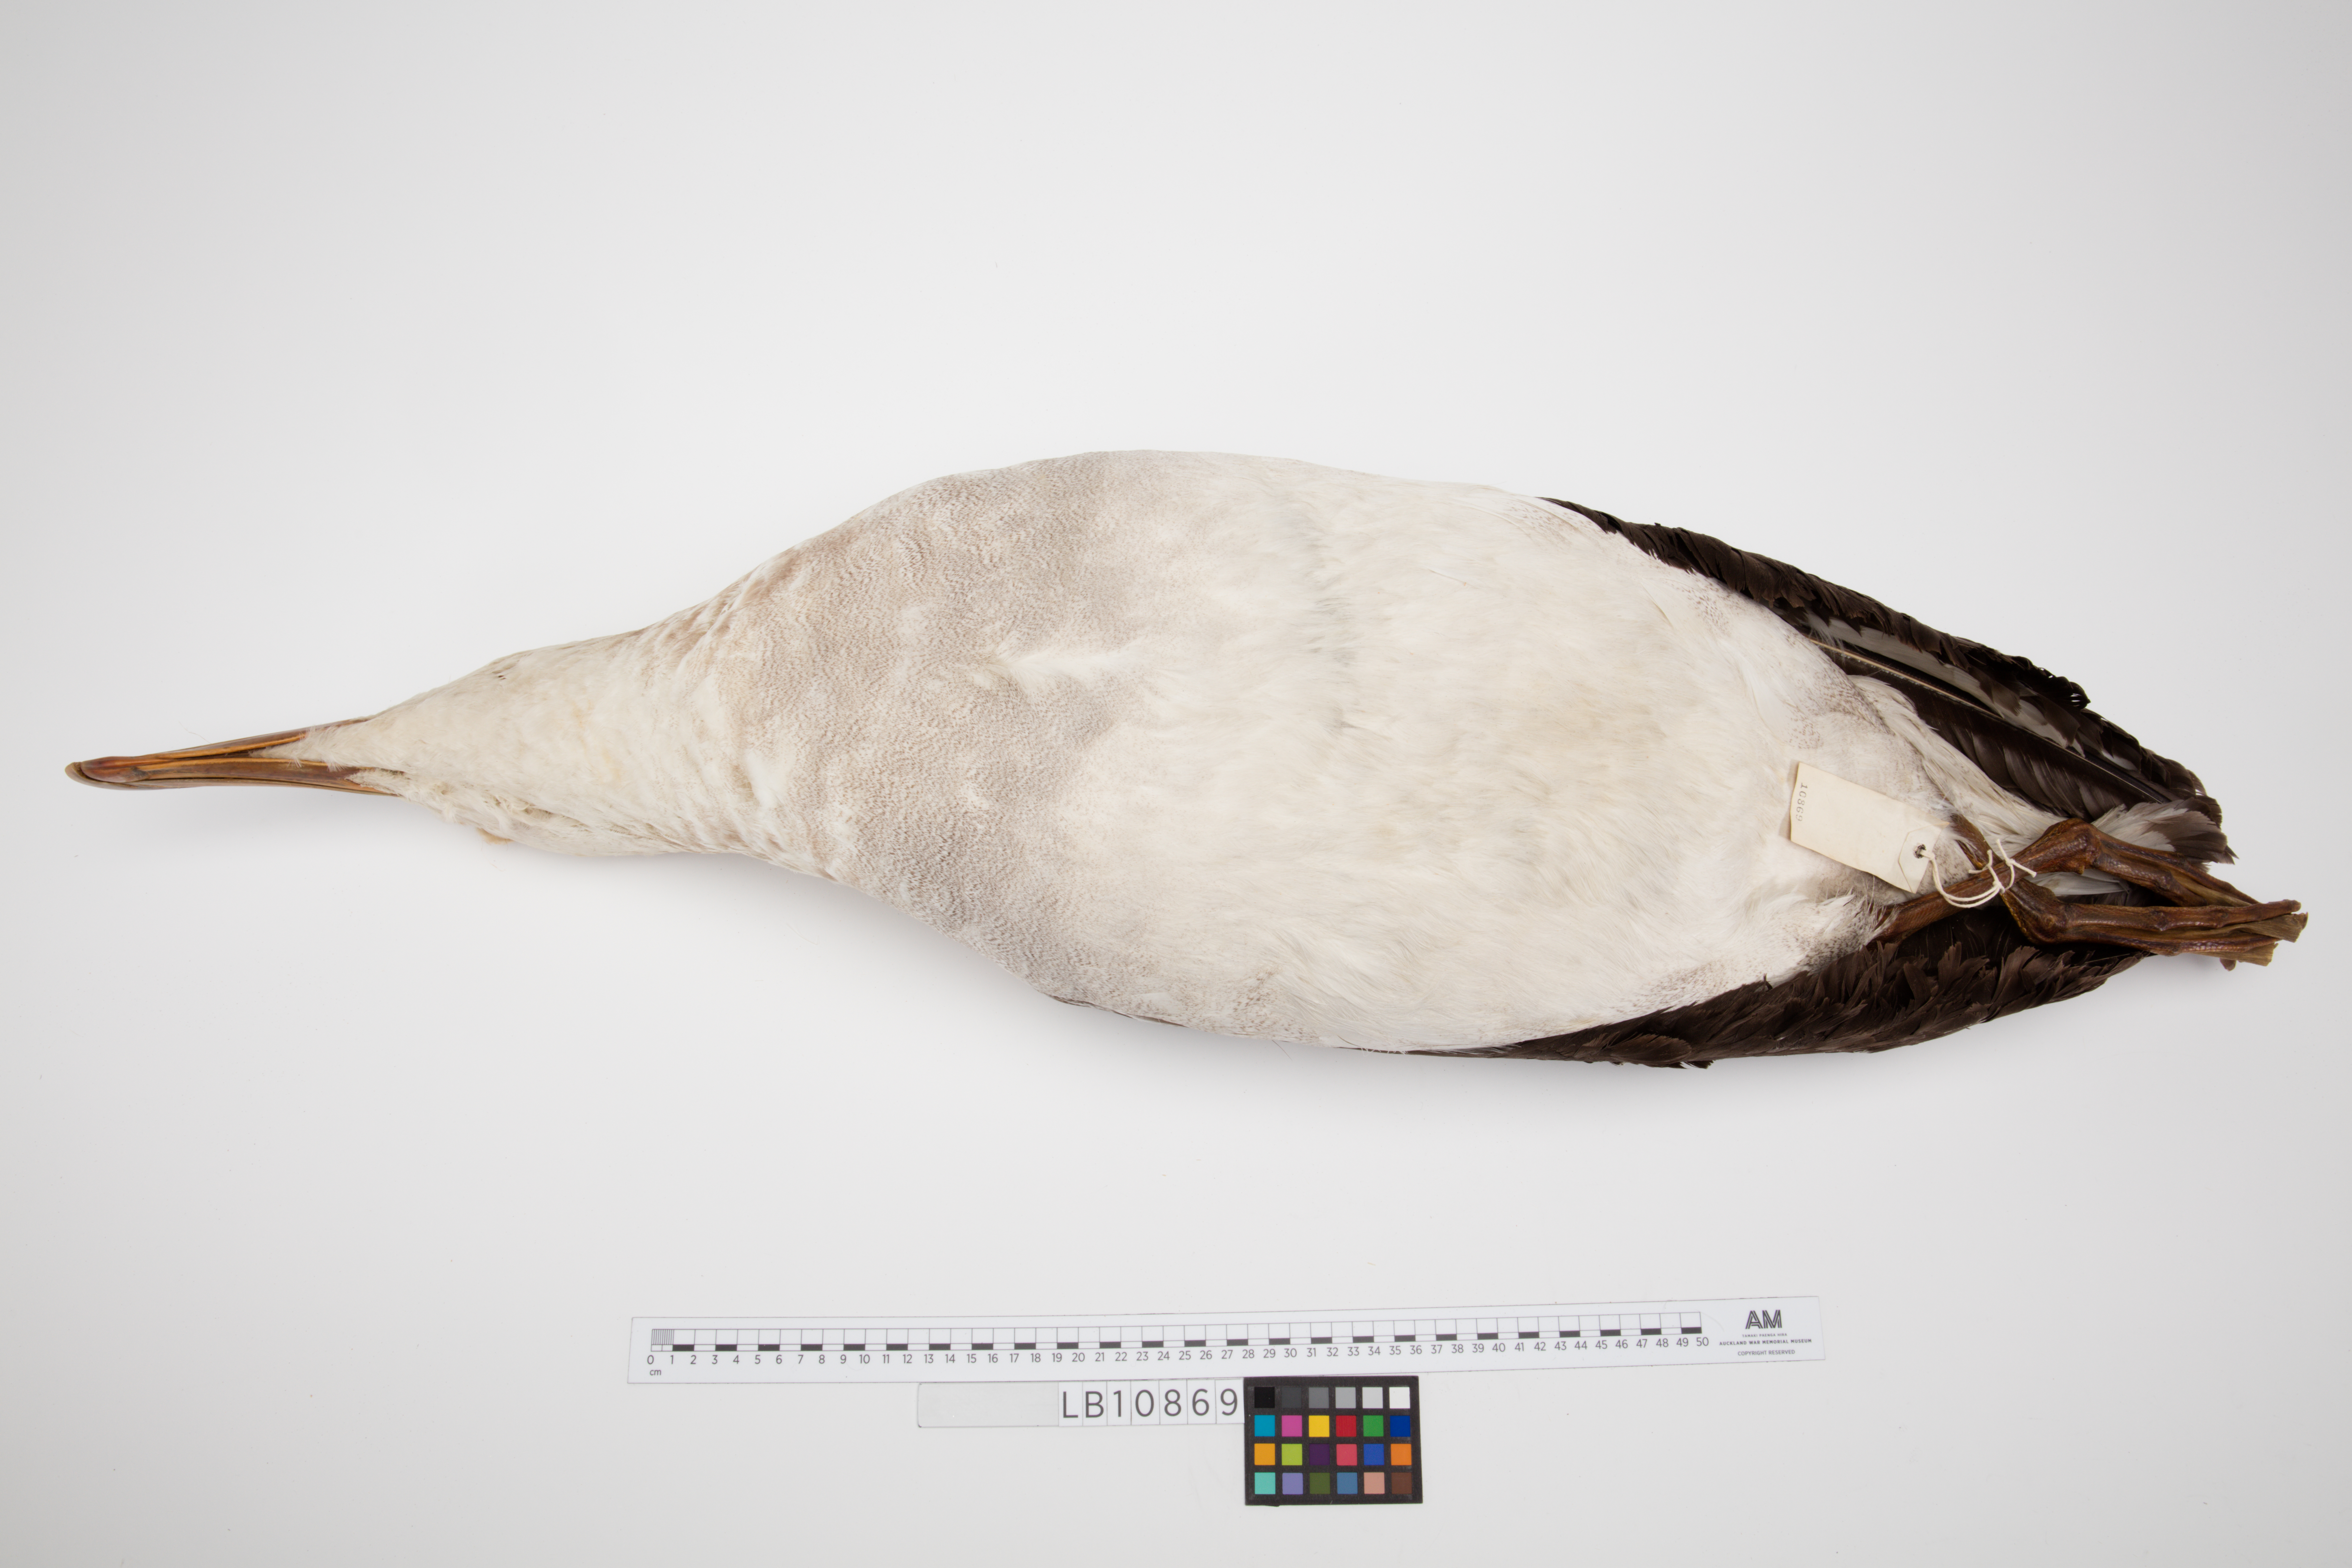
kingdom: Animalia
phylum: Chordata
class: Aves
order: Procellariiformes
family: Diomedeidae
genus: Diomedea
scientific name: Diomedea antipodensis
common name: Antipodean albatross
